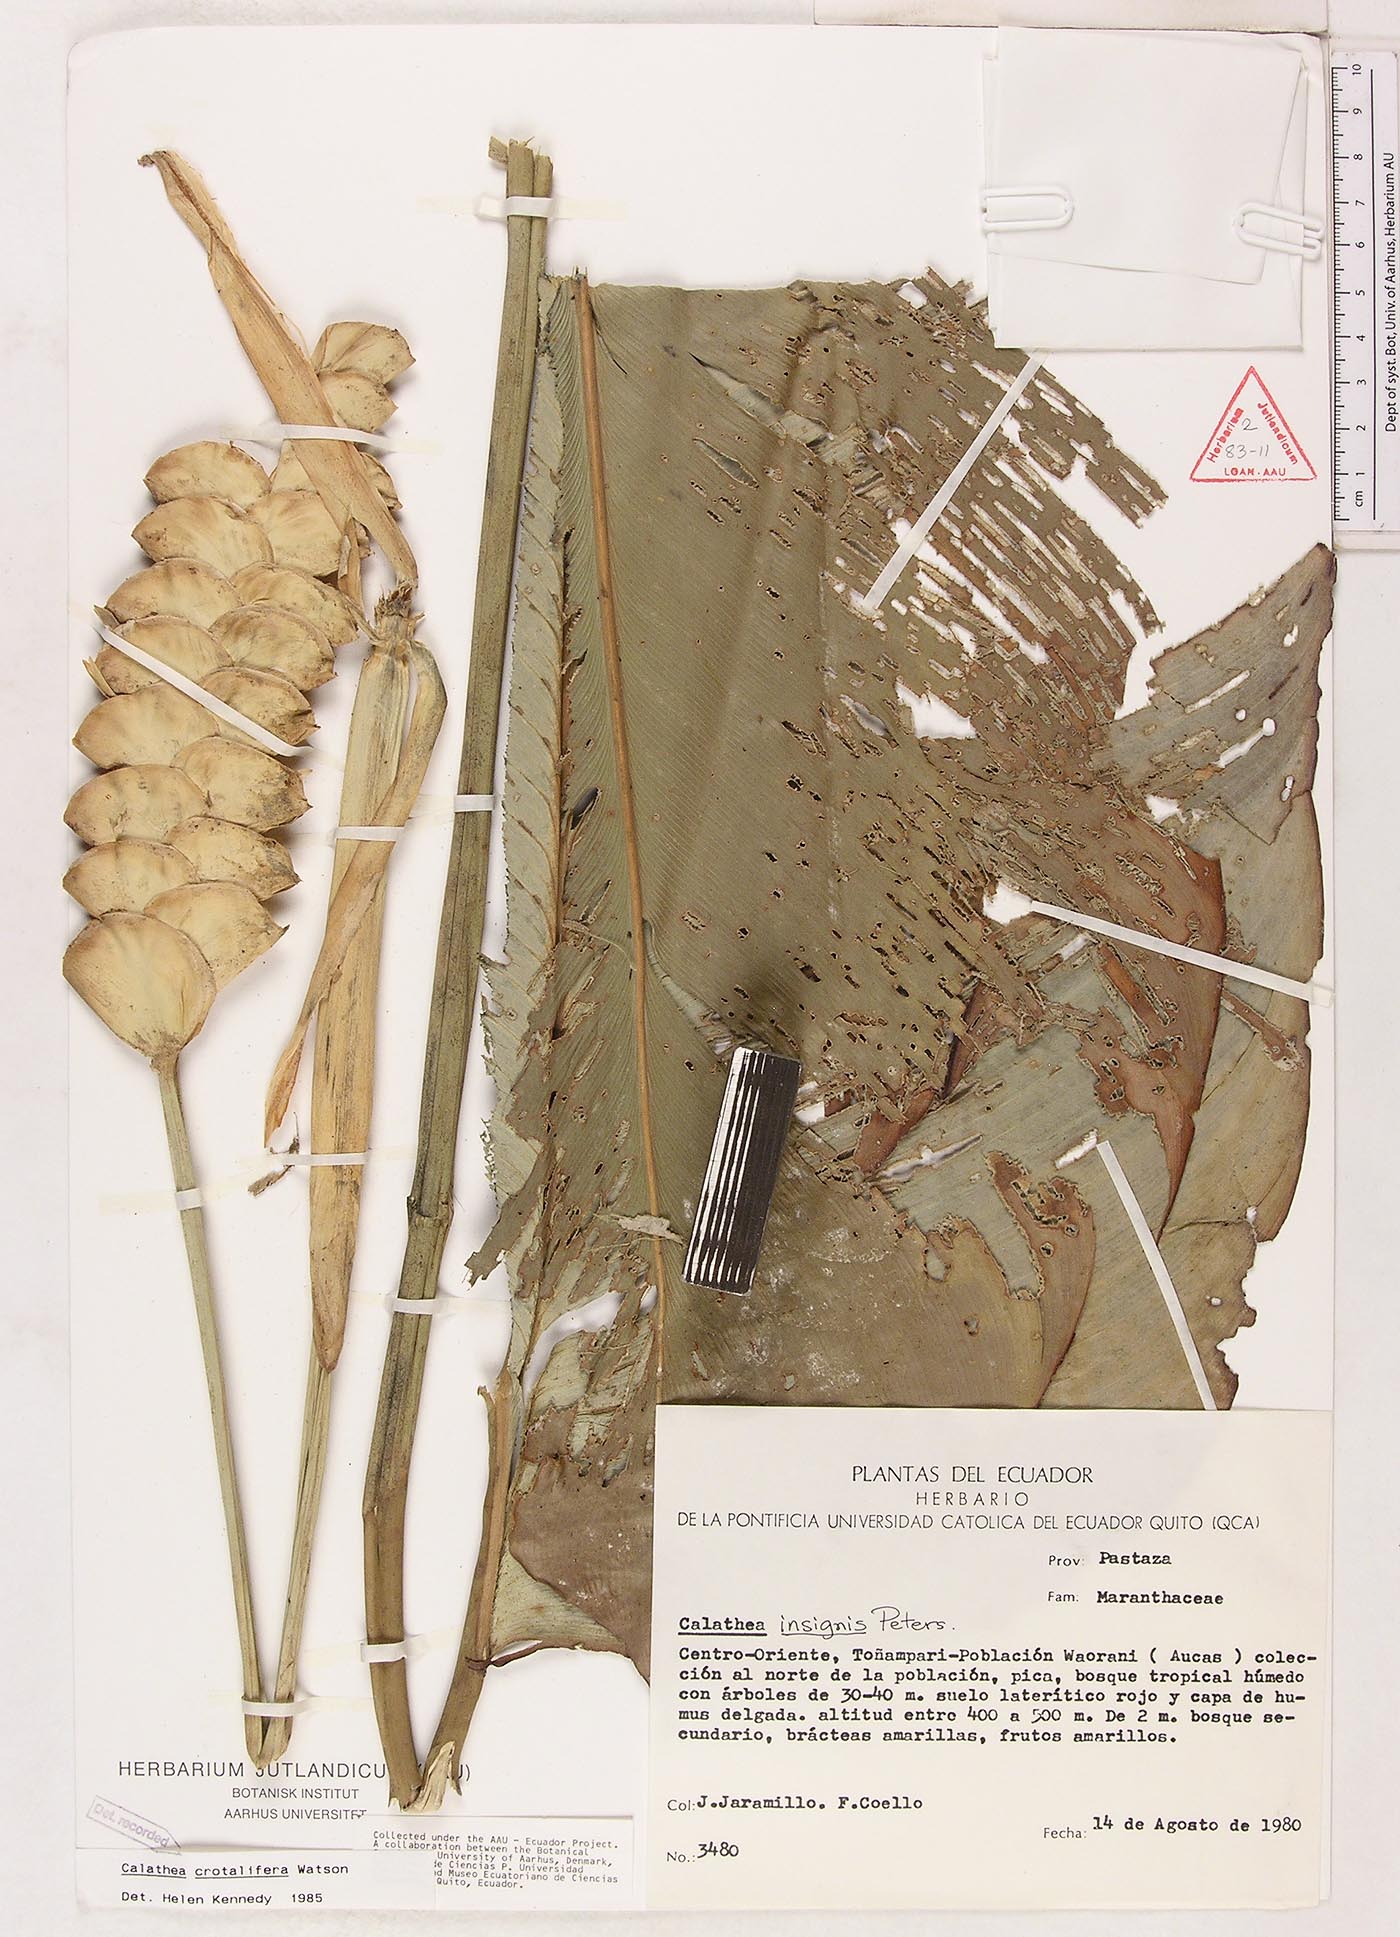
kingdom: Plantae
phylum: Tracheophyta
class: Liliopsida
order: Zingiberales
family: Marantaceae
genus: Calathea
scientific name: Calathea crotalifera
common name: Rattlesnake plant
